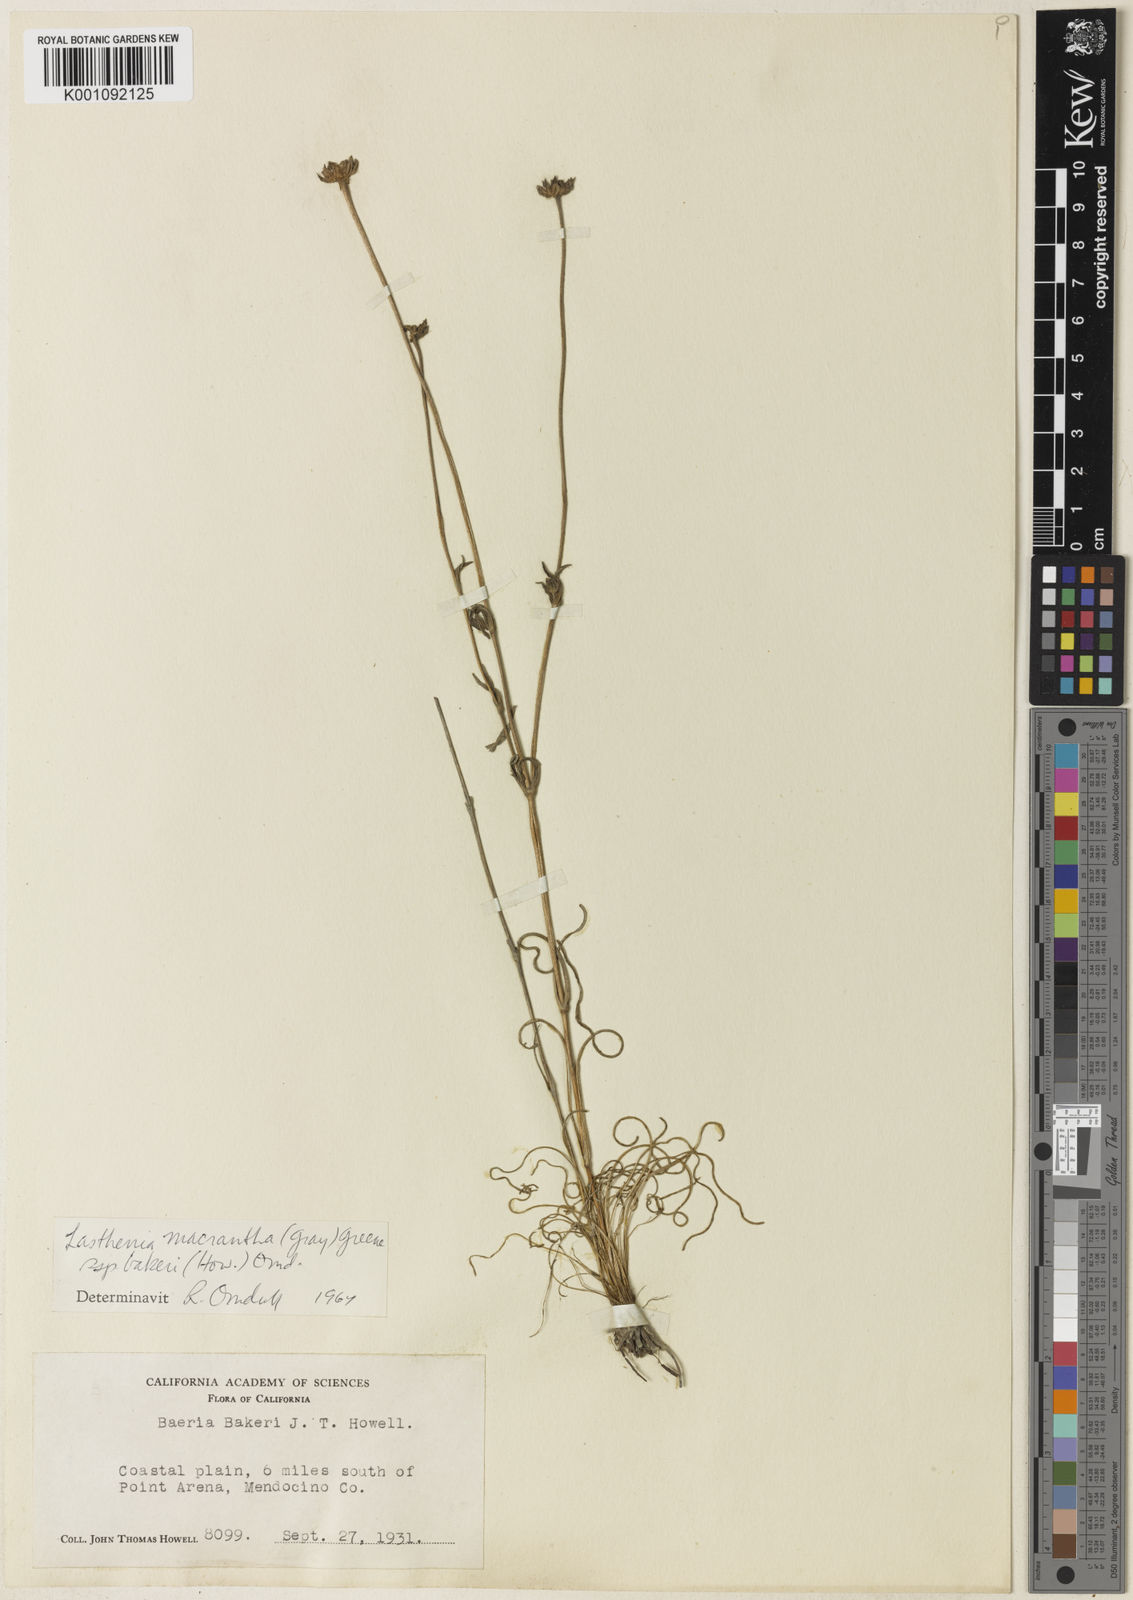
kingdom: Plantae
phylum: Tracheophyta
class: Magnoliopsida
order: Asterales
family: Asteraceae
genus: Lasthenia
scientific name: Lasthenia californica
